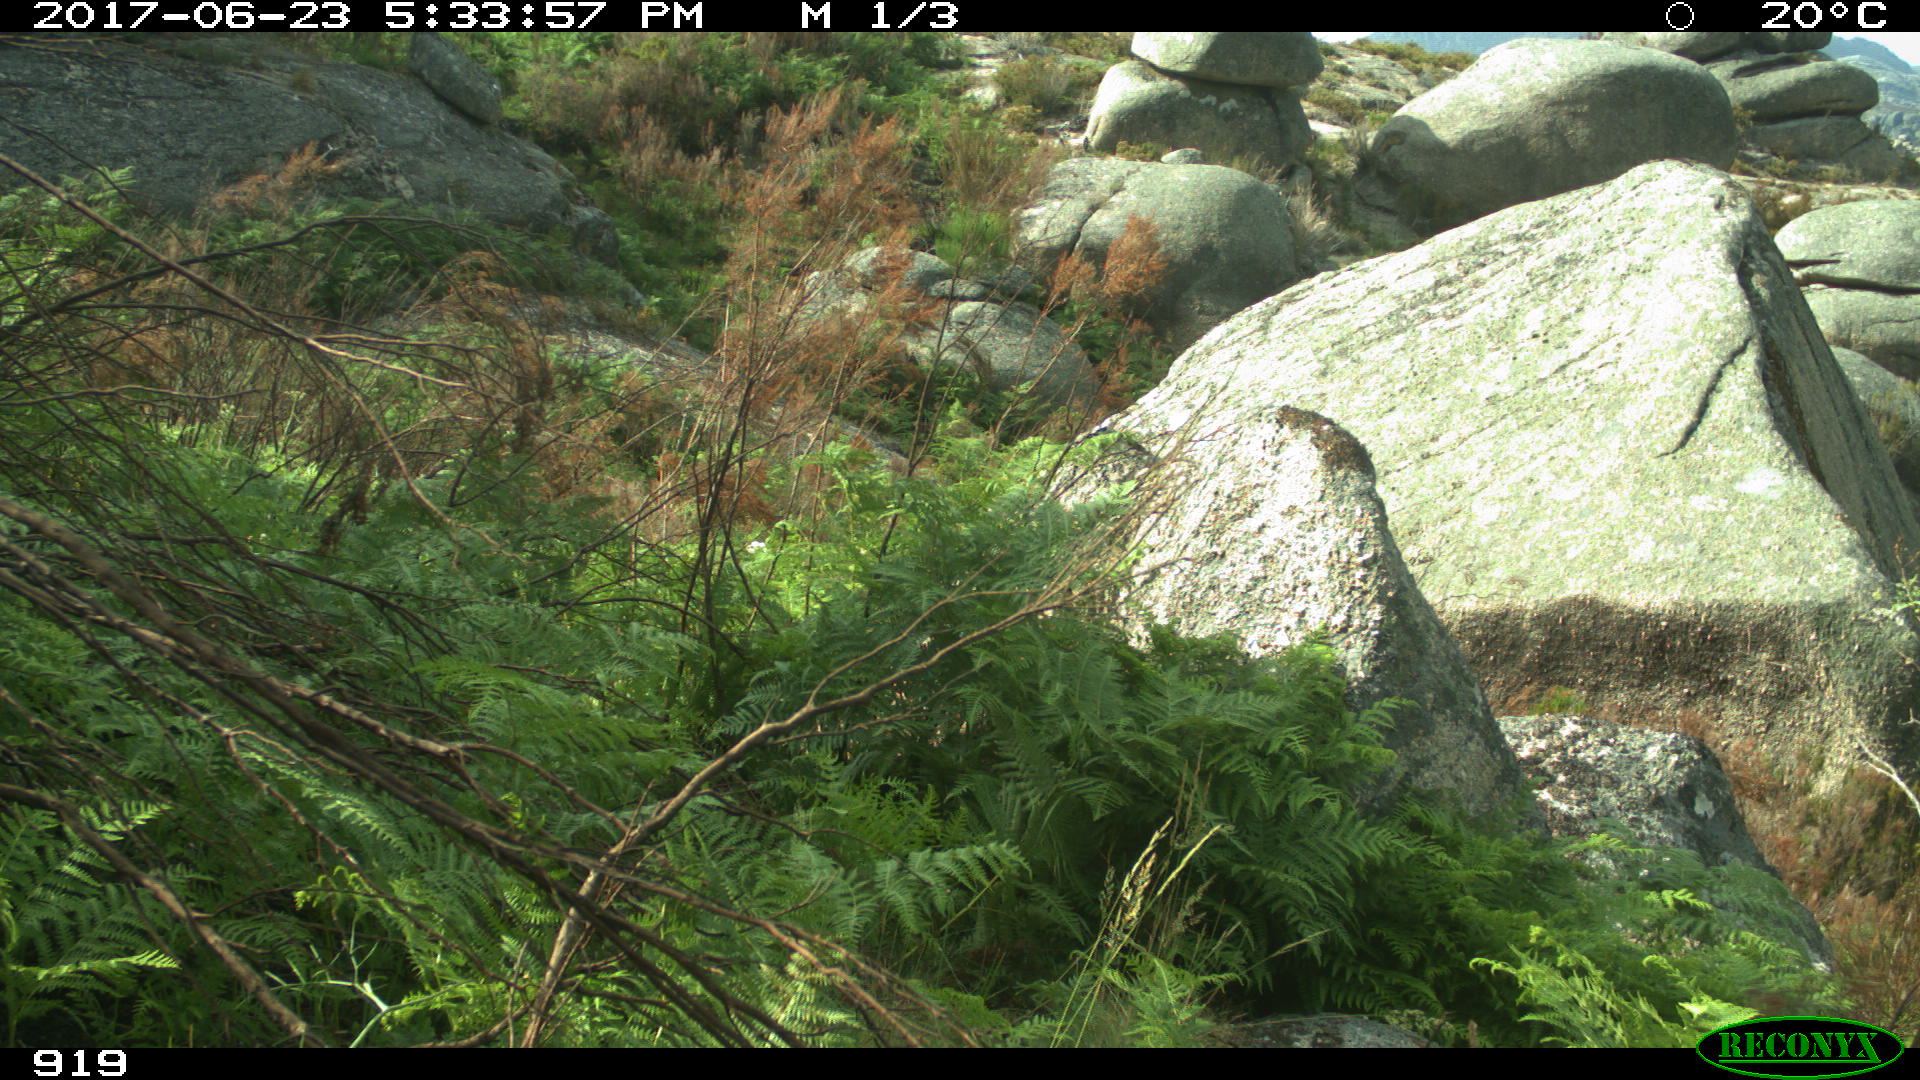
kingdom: Animalia
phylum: Chordata
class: Mammalia
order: Artiodactyla
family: Bovidae
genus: Bos
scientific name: Bos taurus
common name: Domesticated cattle
